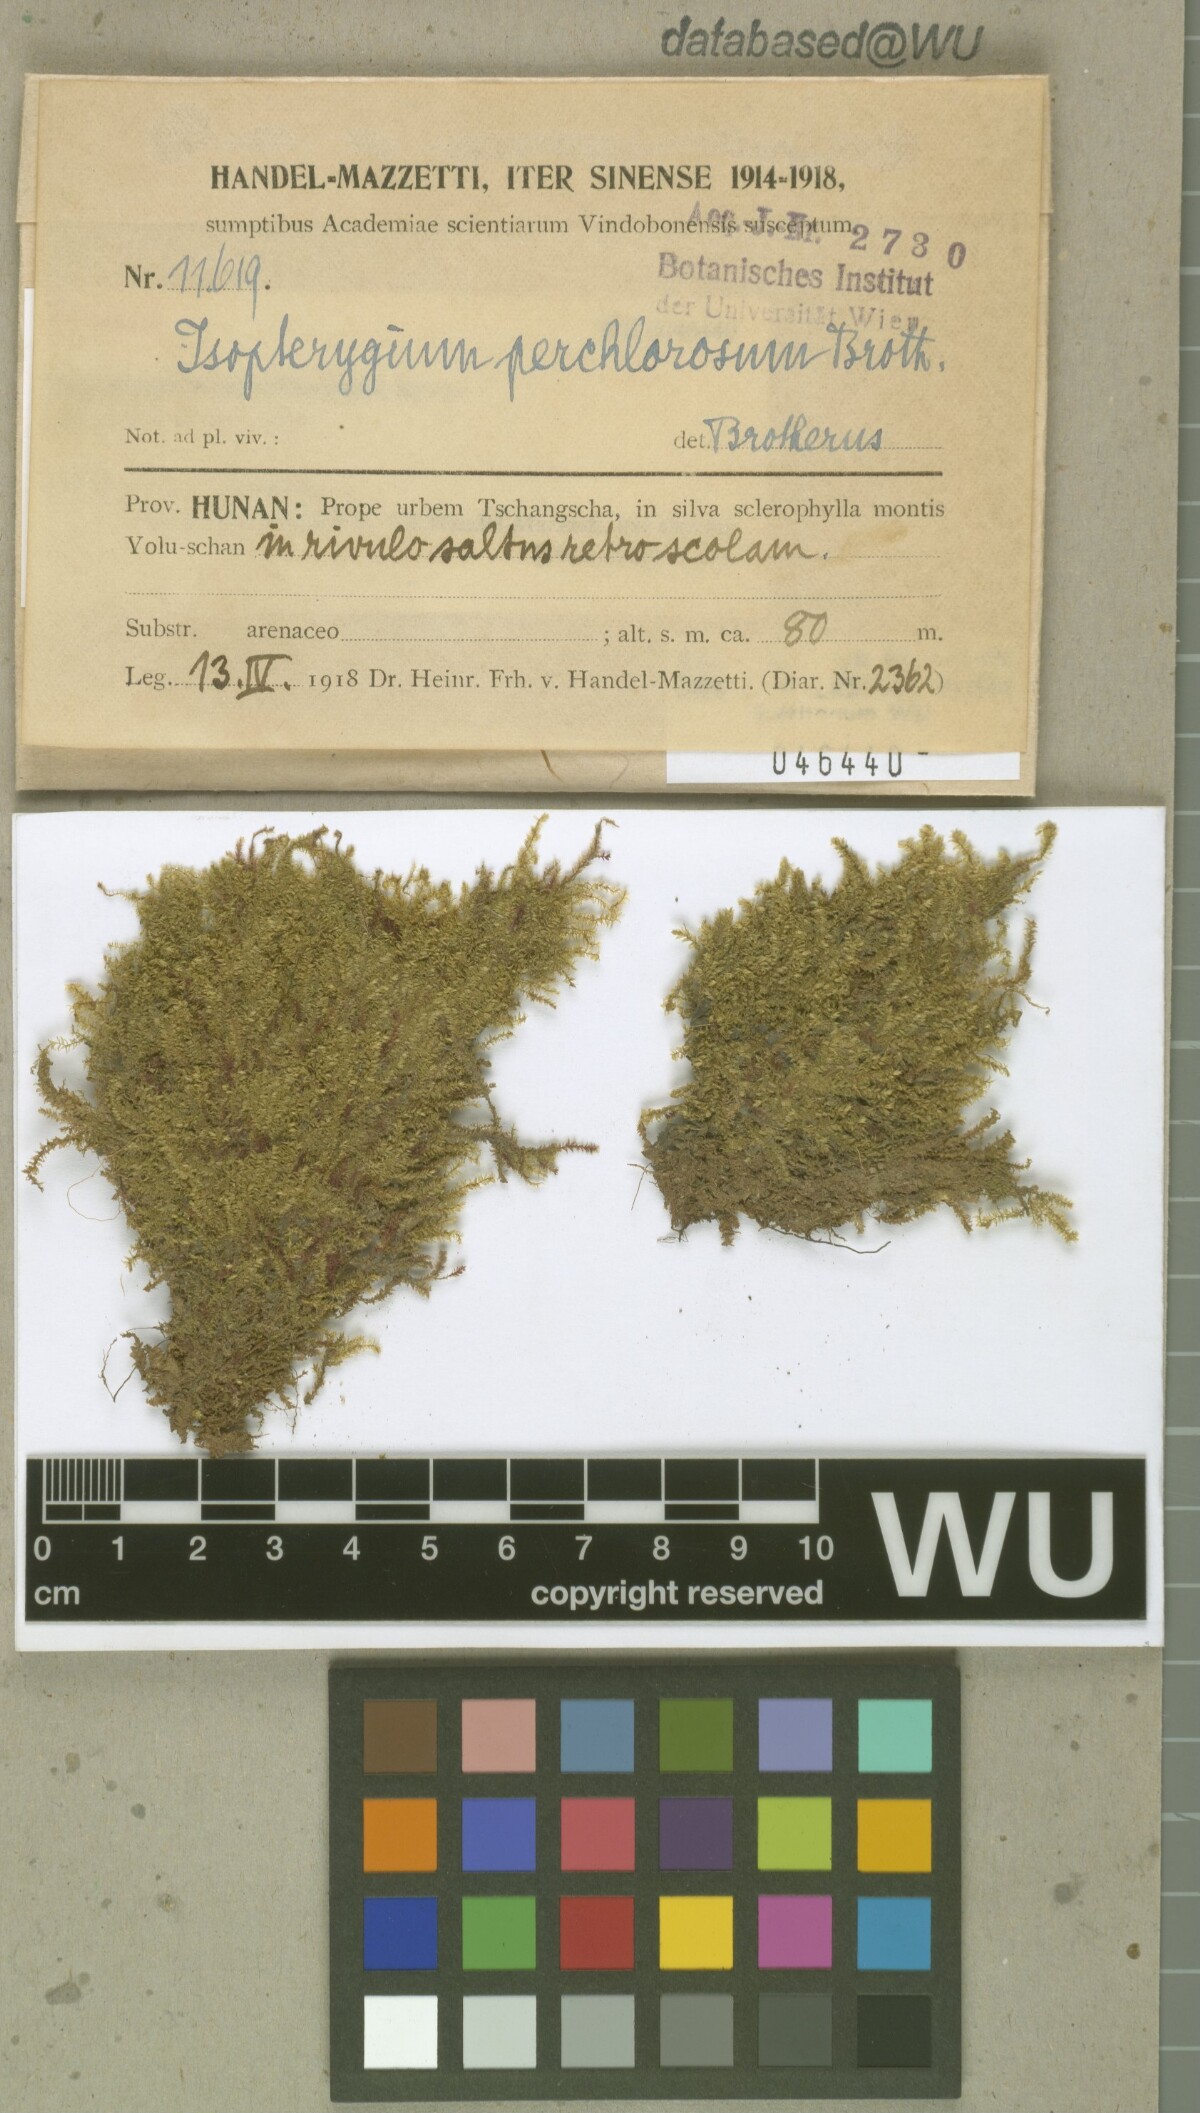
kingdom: Plantae
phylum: Bryophyta
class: Bryopsida
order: Hypnales
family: Plagiotheciaceae
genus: Pseudotaxiphyllum
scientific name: Pseudotaxiphyllum pohliicarpum
